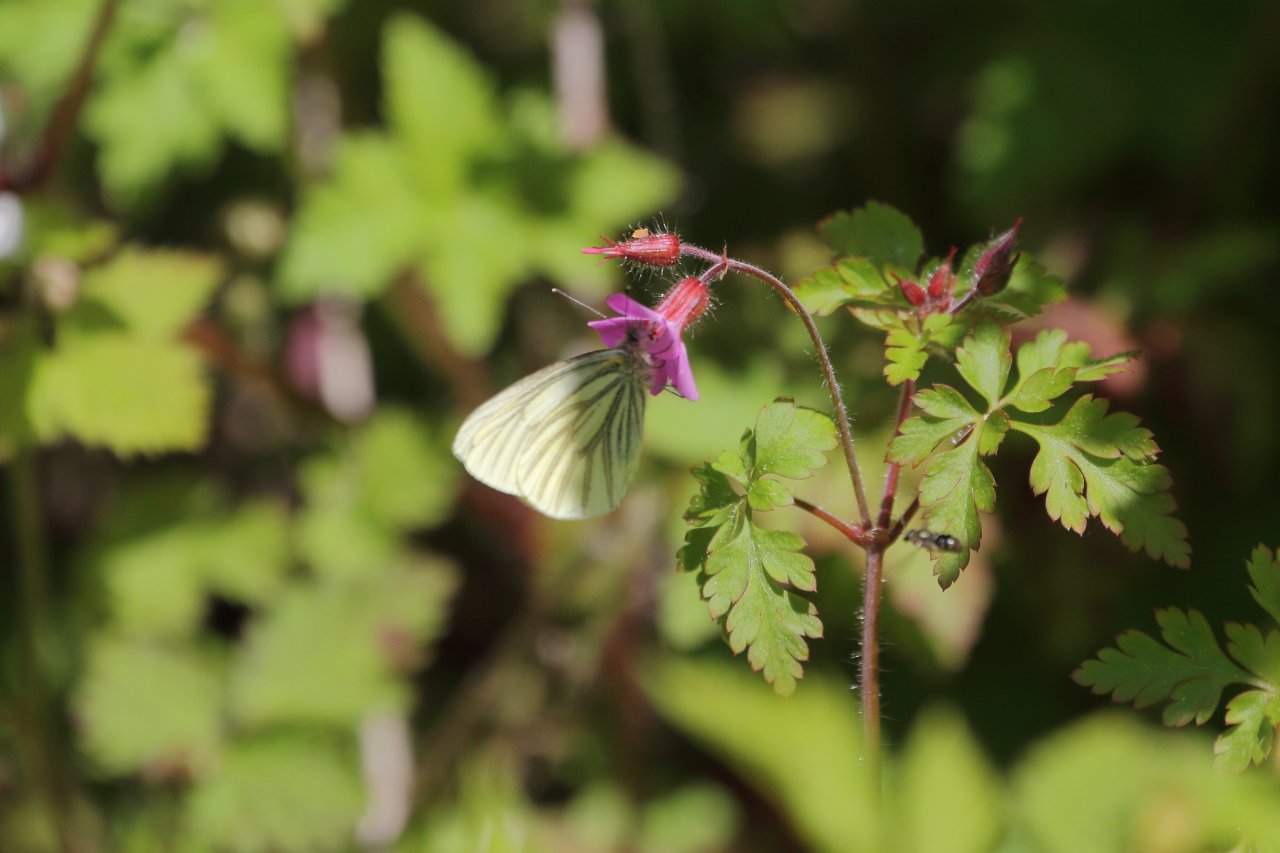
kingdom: Animalia
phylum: Arthropoda
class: Insecta
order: Lepidoptera
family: Pieridae
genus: Pieris
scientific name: Pieris marginalis
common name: Margined White
